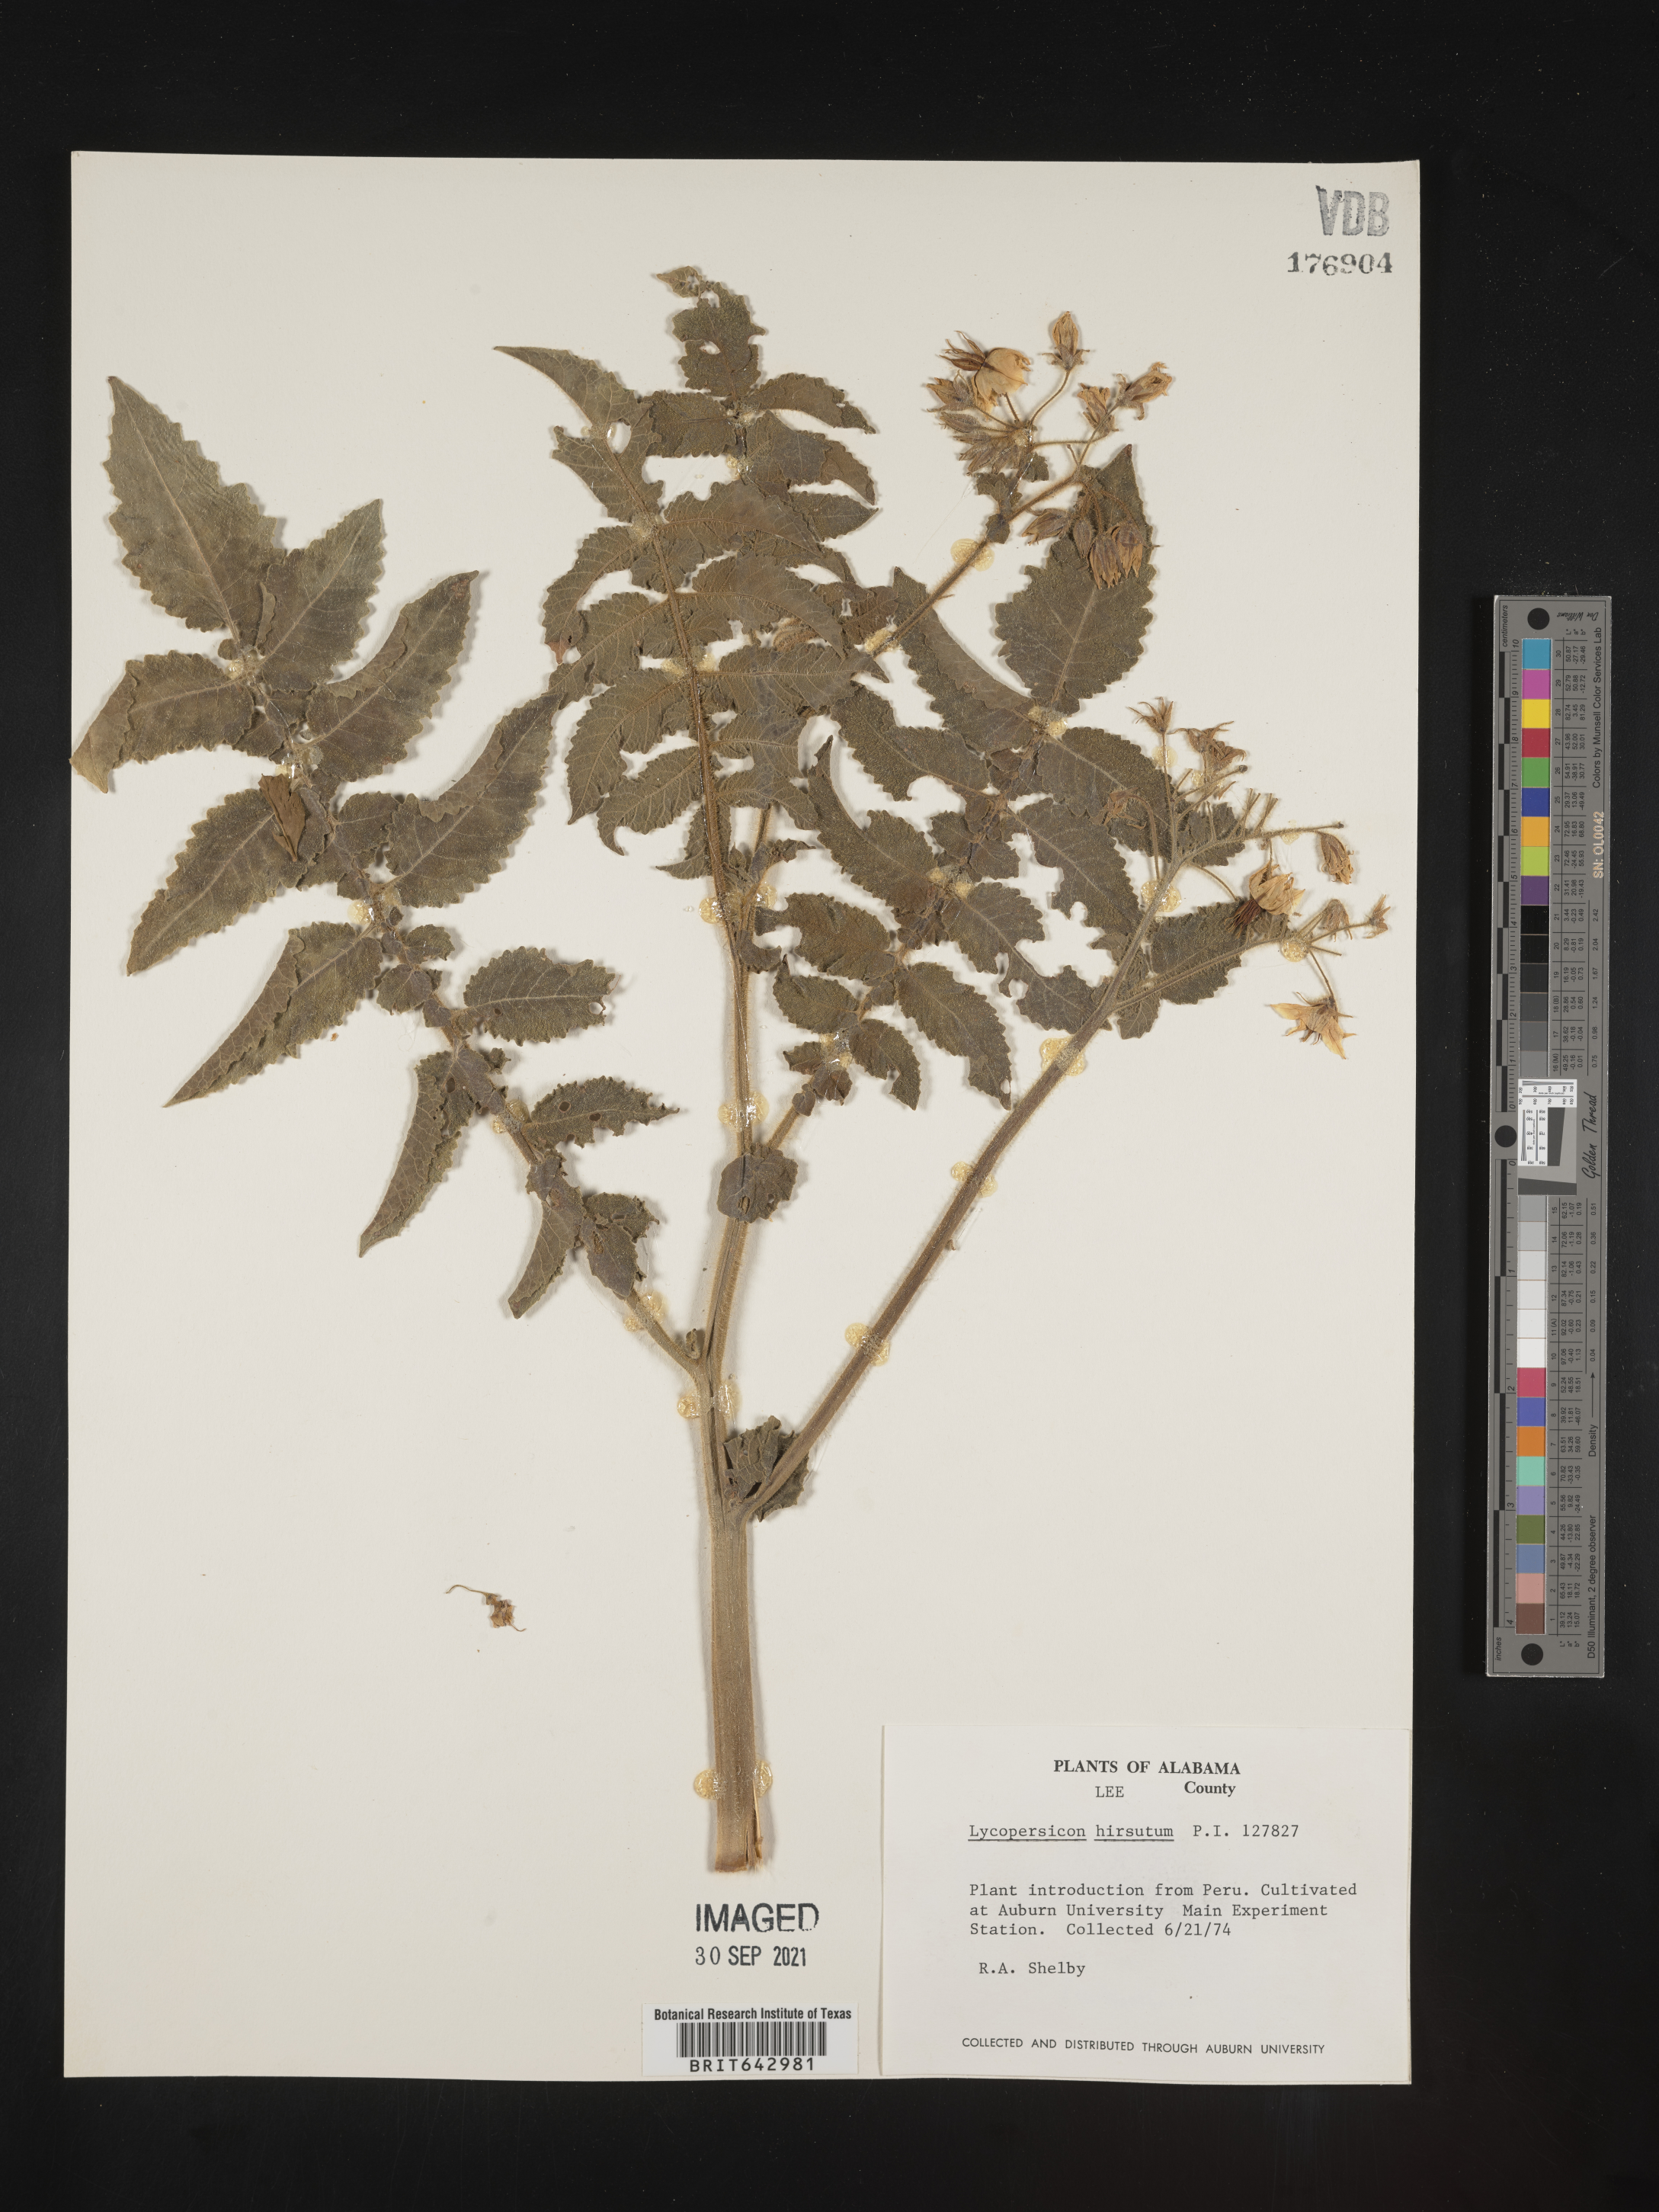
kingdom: Plantae
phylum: Tracheophyta
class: Magnoliopsida
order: Solanales
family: Solanaceae
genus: Lycopersicon
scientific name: Lycopersicon
